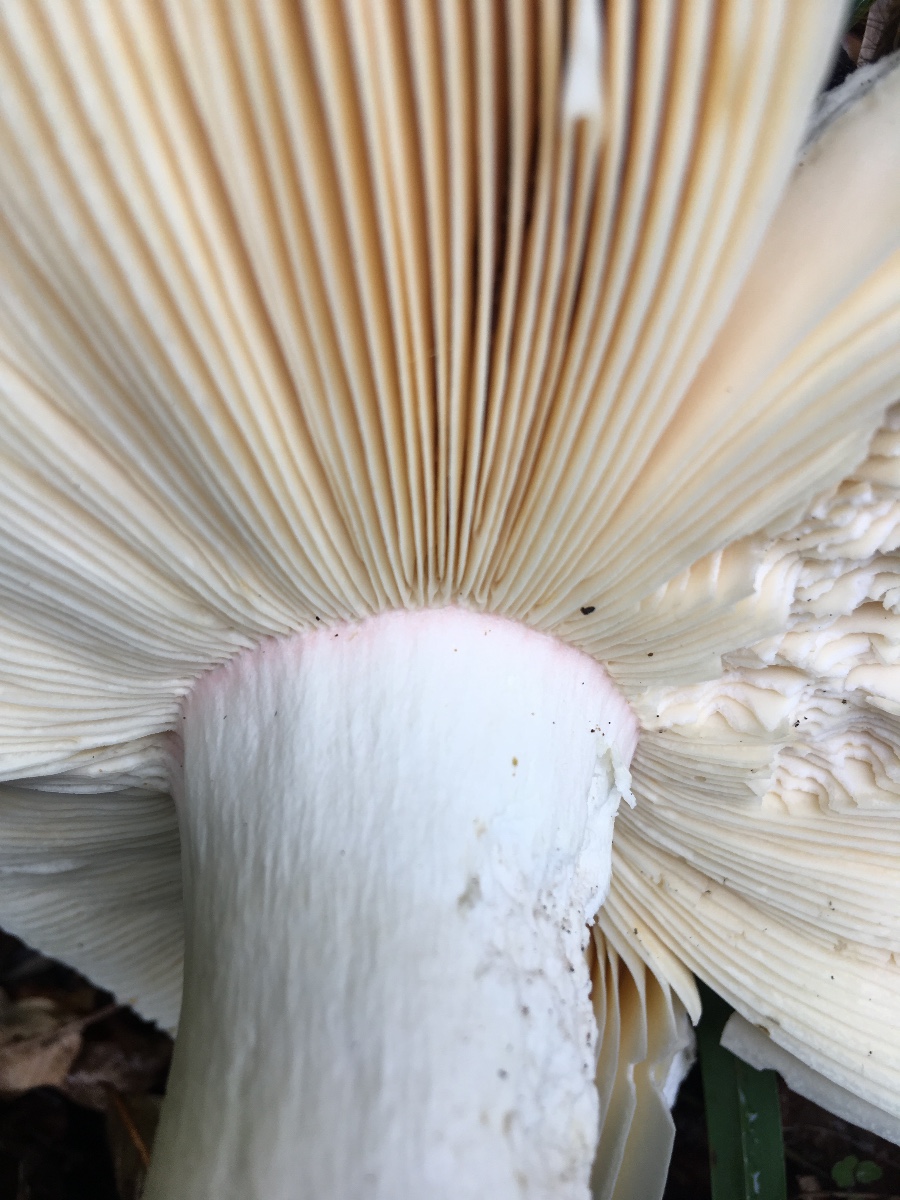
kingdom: Fungi
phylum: Basidiomycota
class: Agaricomycetes
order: Russulales
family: Russulaceae
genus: Russula
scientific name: Russula olivacea
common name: stor skørhat
